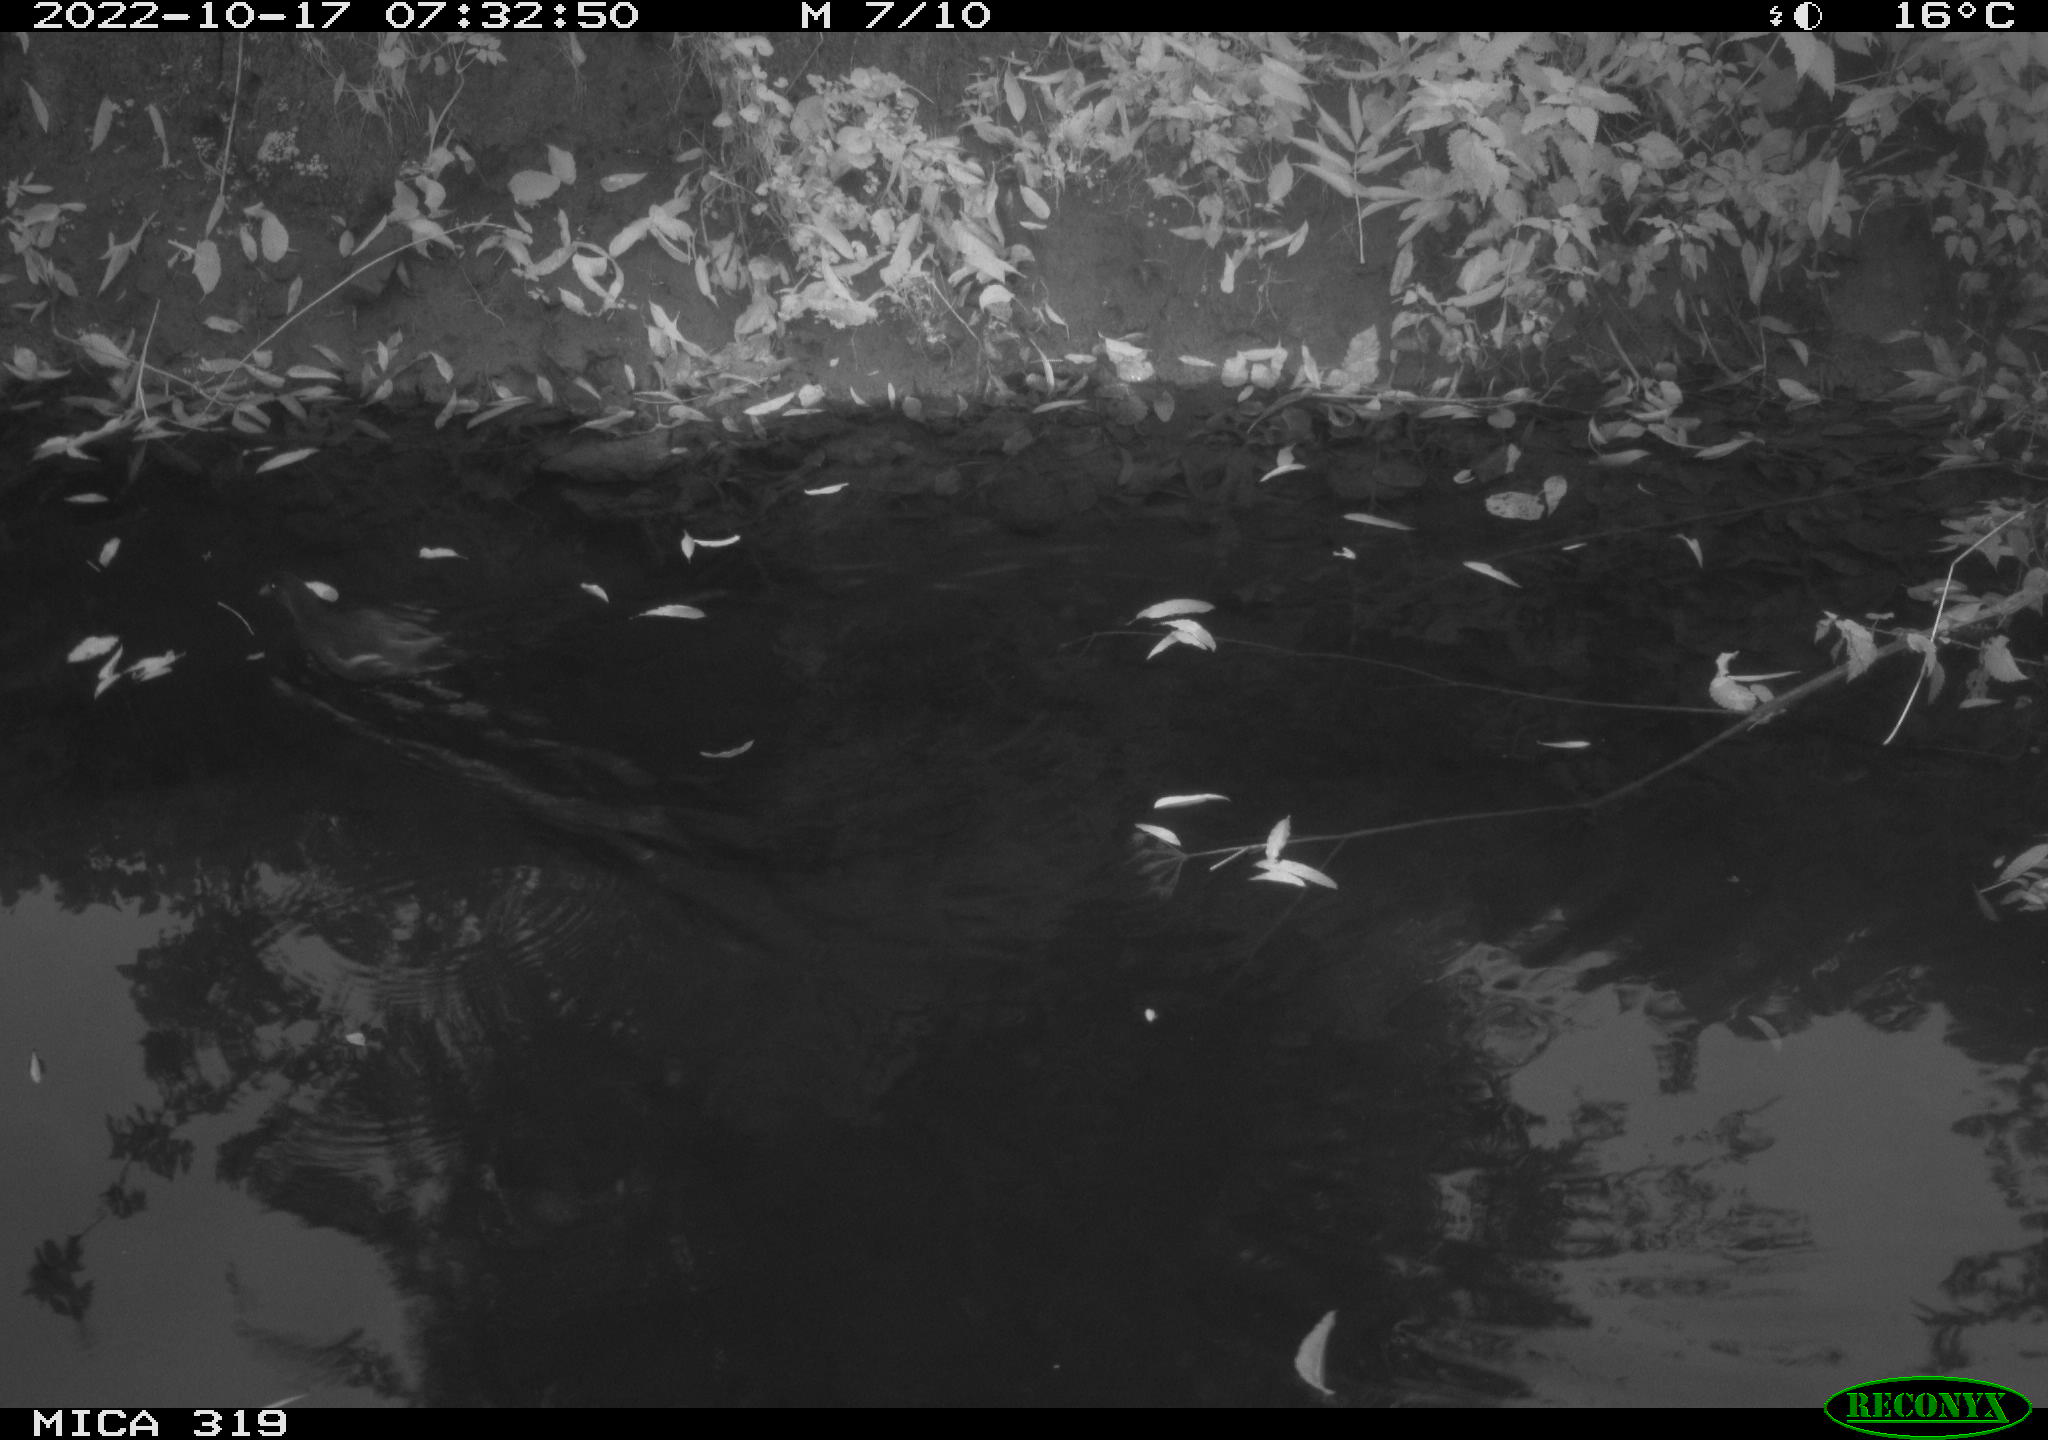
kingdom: Animalia
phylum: Chordata
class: Aves
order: Gruiformes
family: Rallidae
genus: Gallinula
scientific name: Gallinula chloropus
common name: Common moorhen
